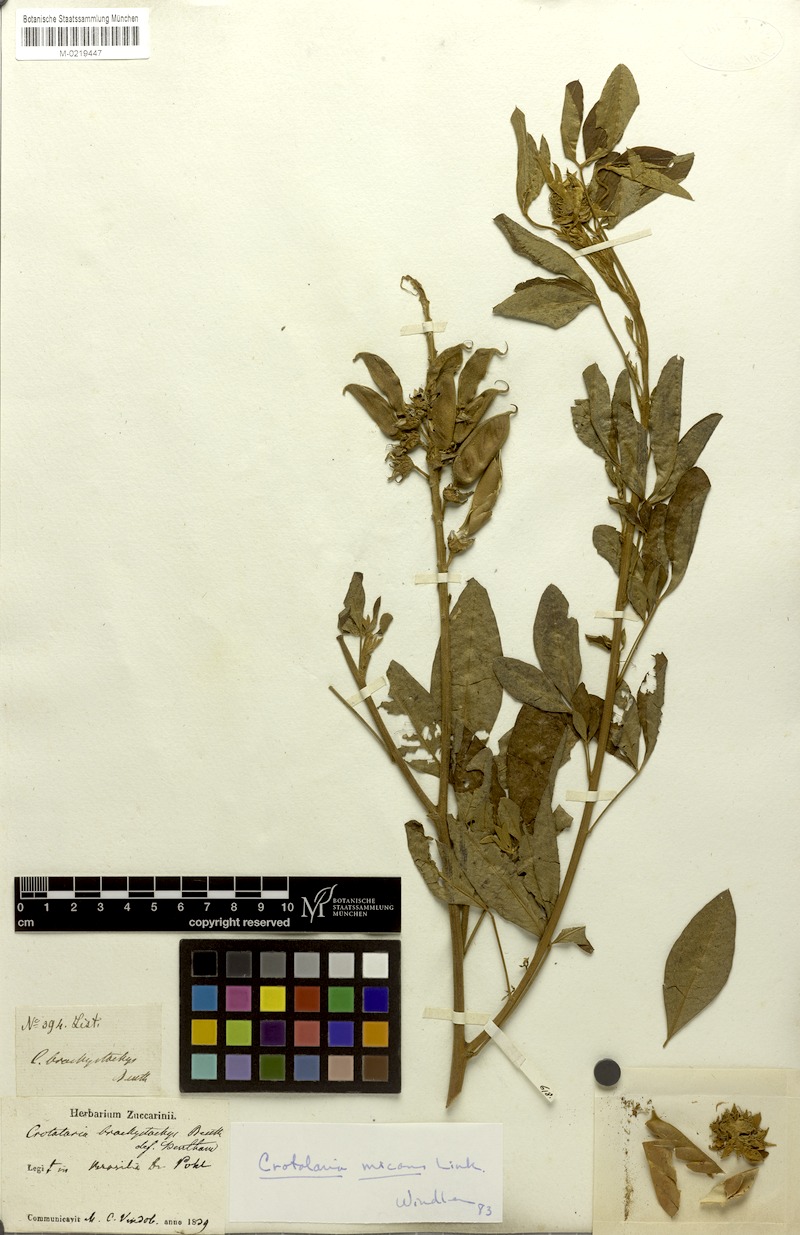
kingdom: Plantae
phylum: Tracheophyta
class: Magnoliopsida
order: Fabales
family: Fabaceae
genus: Crotalaria
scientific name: Crotalaria micans
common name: Caracas rattlebox
